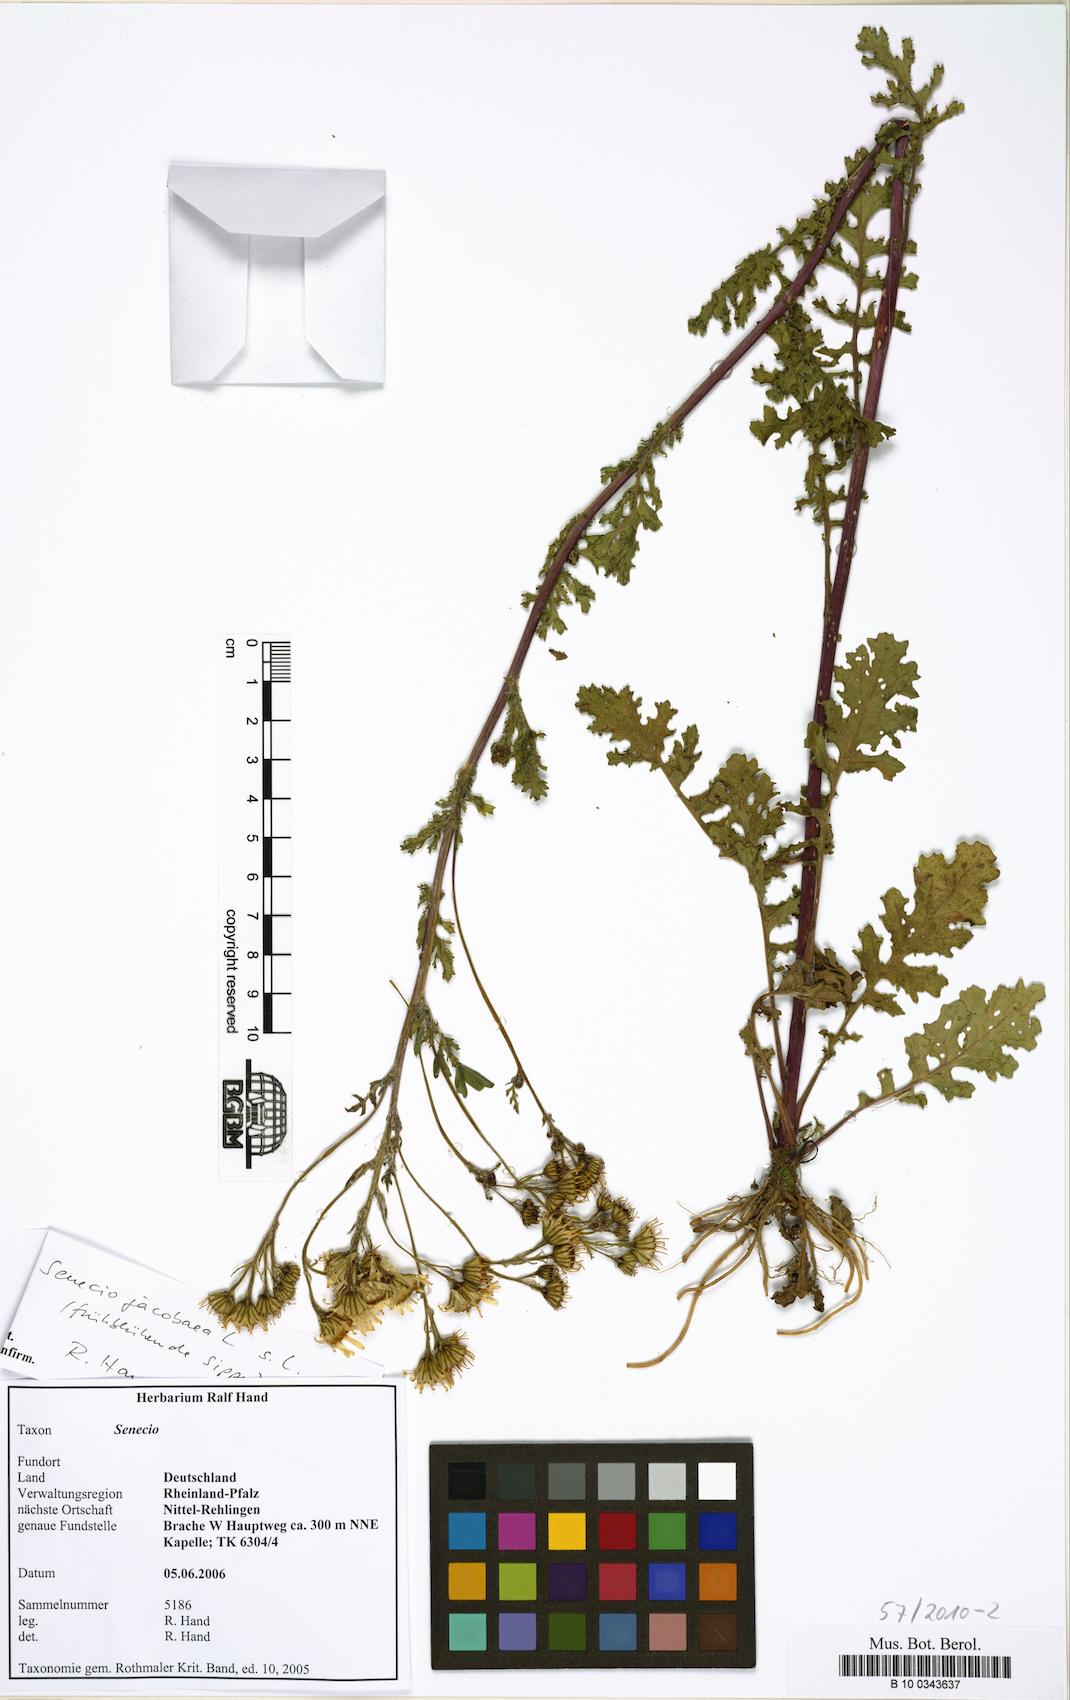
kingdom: Plantae
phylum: Tracheophyta
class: Magnoliopsida
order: Asterales
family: Asteraceae
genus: Jacobaea
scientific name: Jacobaea vulgaris
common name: Stinking willie
